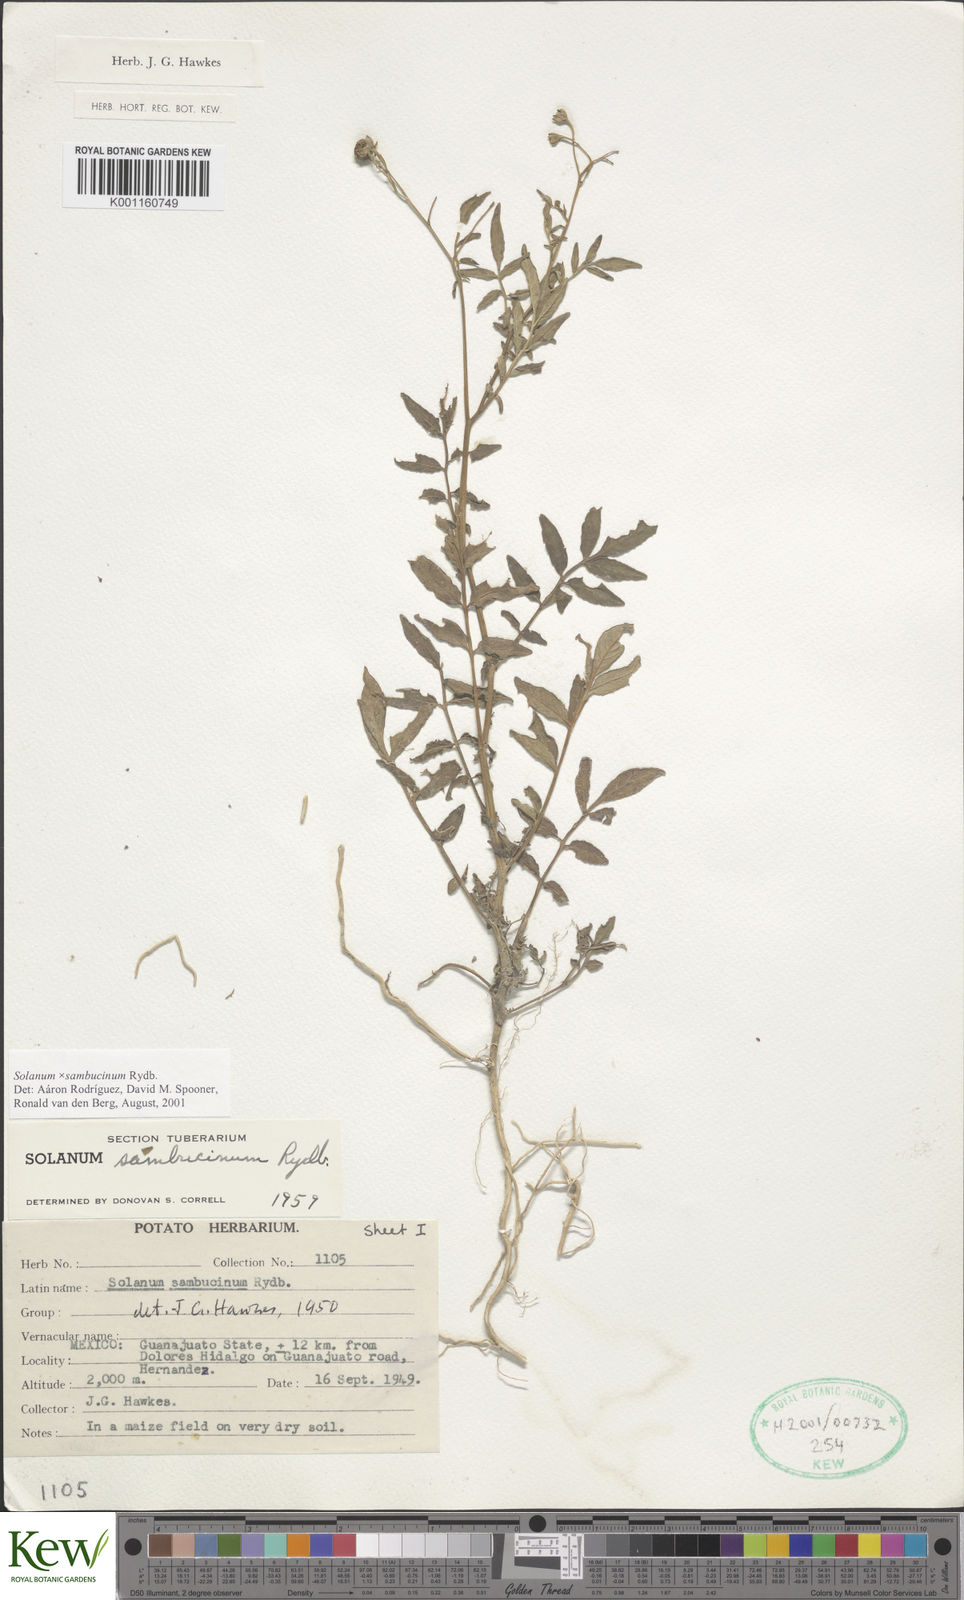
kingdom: Plantae
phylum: Tracheophyta
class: Magnoliopsida
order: Solanales
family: Solanaceae
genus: Solanum
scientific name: Solanum sambucinum
